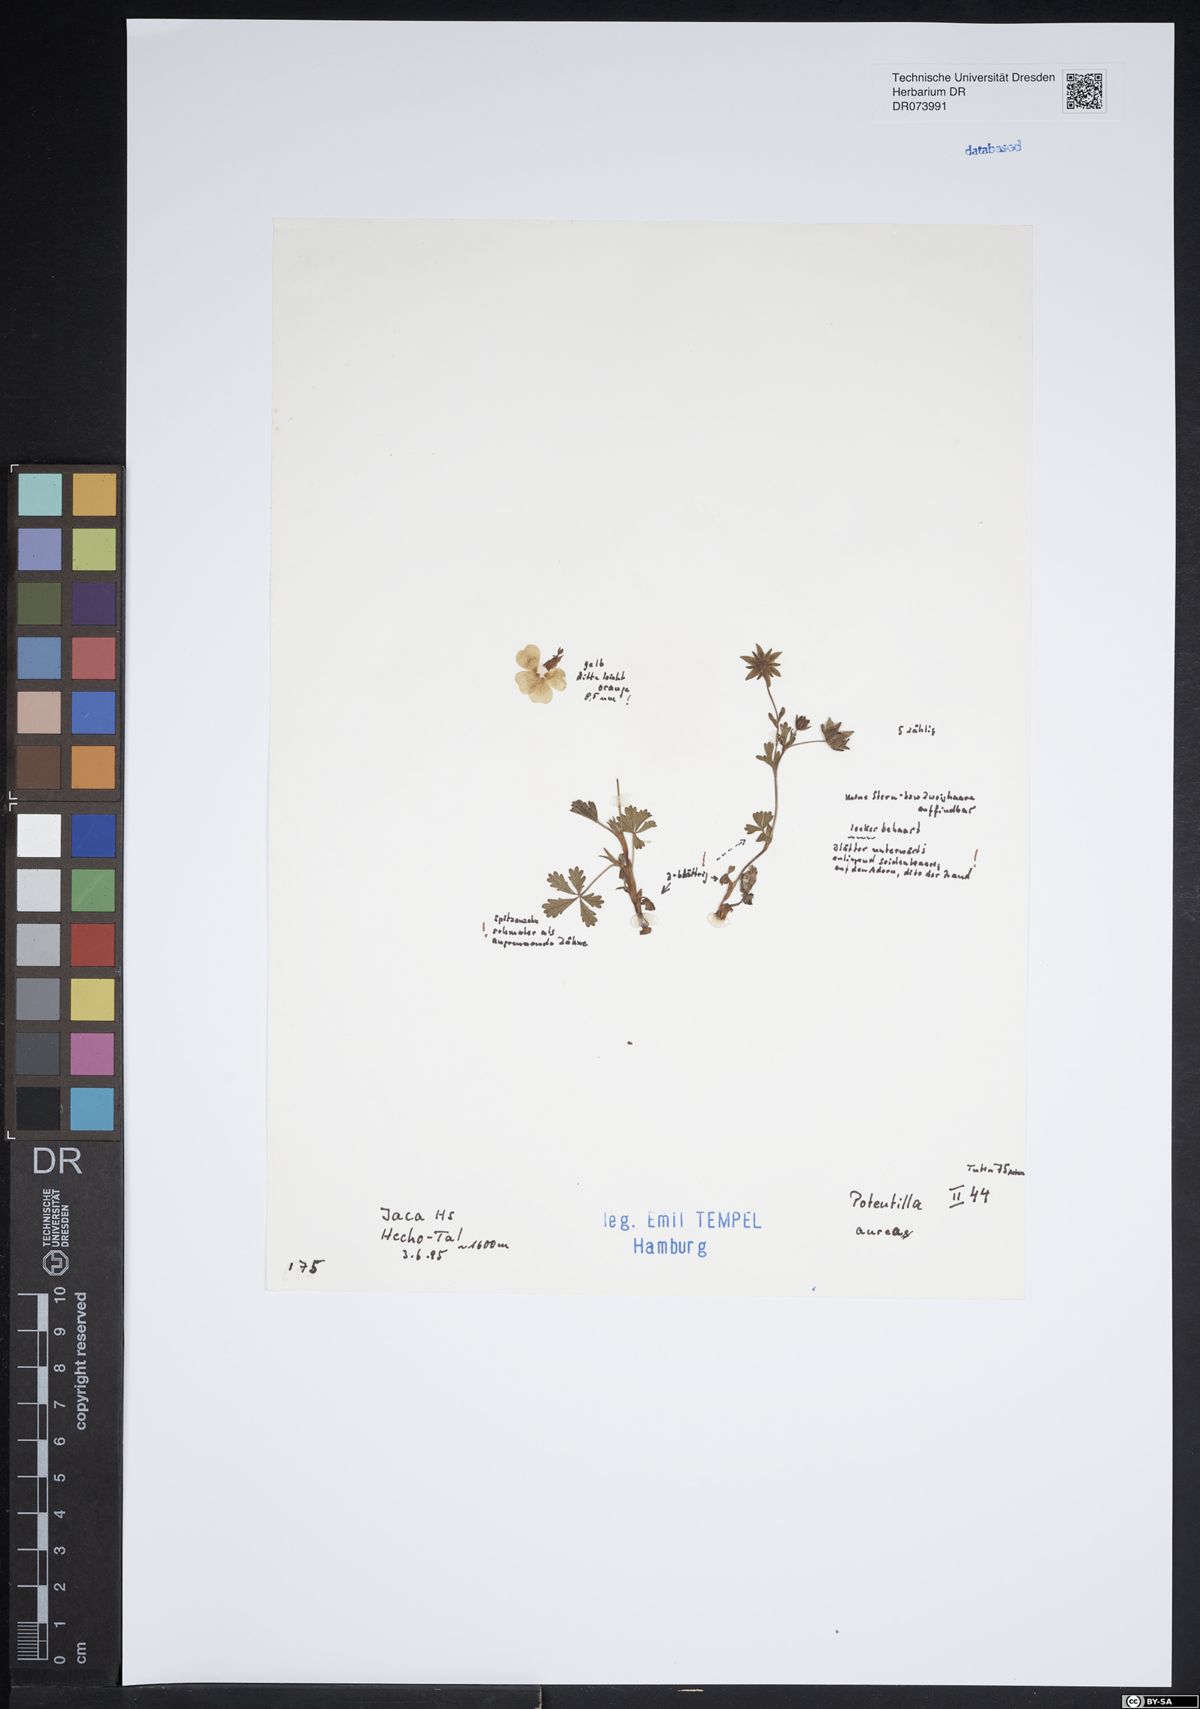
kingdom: Plantae
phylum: Tracheophyta
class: Magnoliopsida
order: Rosales
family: Rosaceae
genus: Potentilla
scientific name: Potentilla aurea
